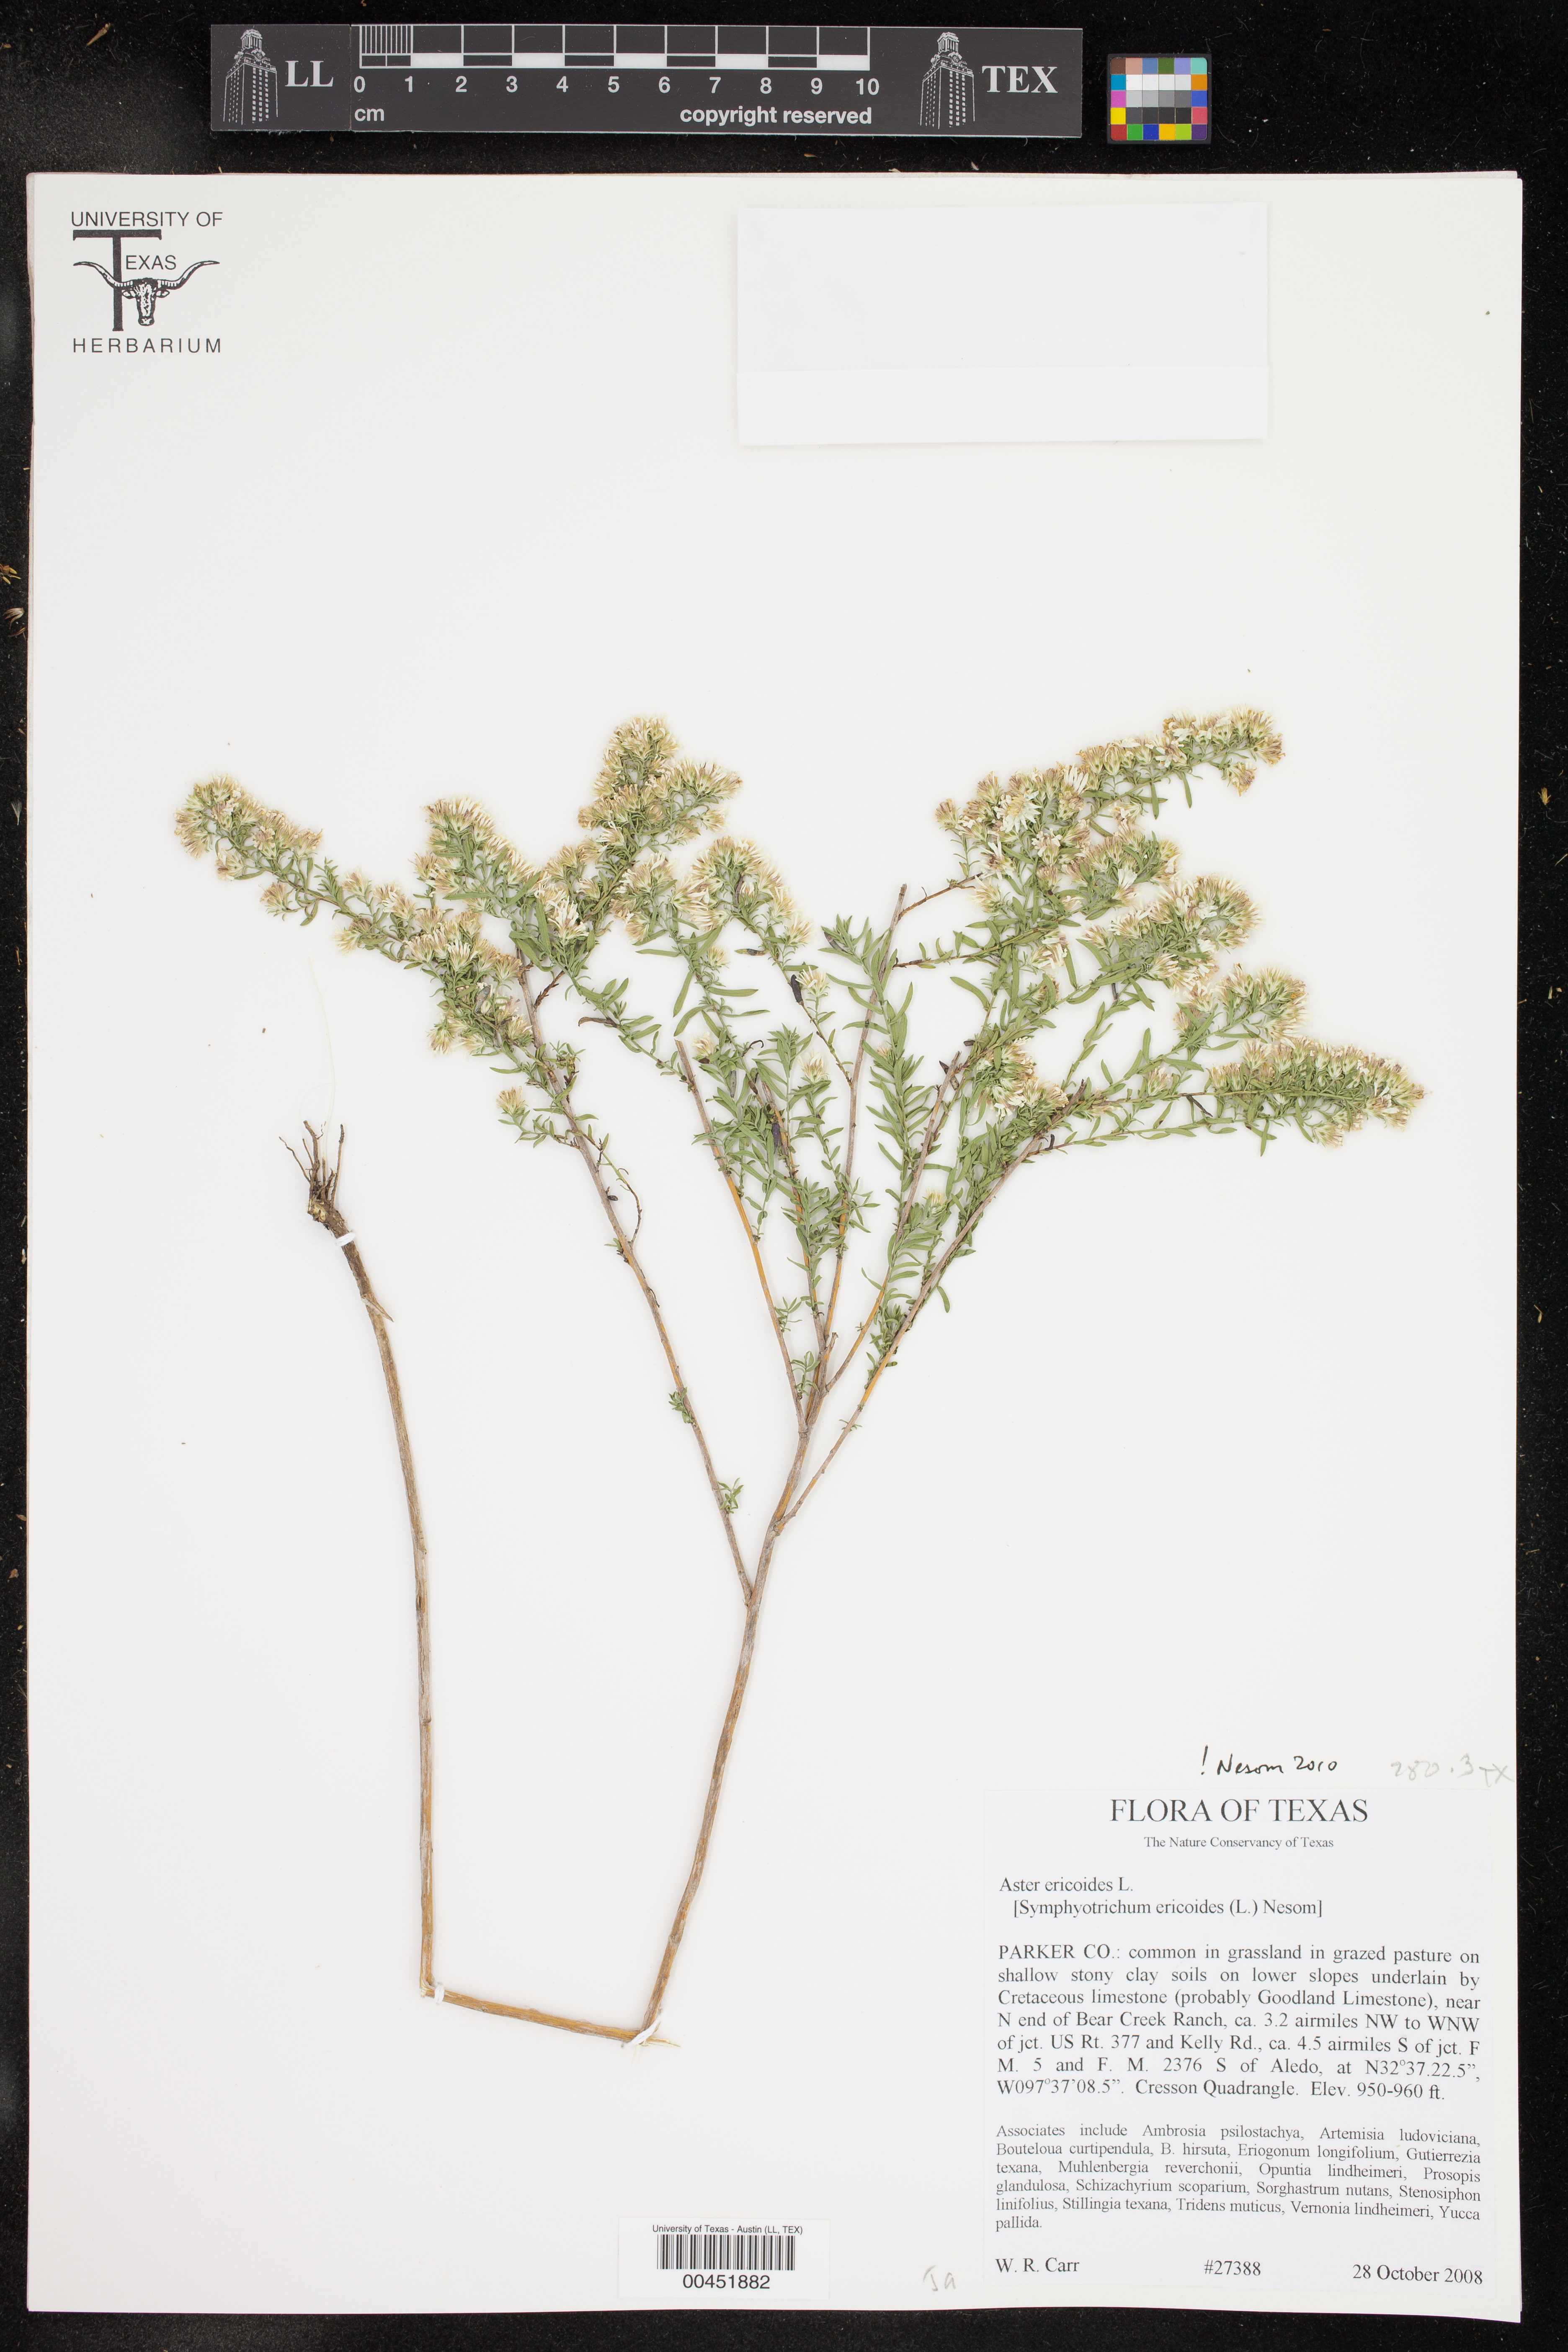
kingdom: Plantae
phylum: Tracheophyta
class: Magnoliopsida
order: Asterales
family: Asteraceae
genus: Symphyotrichum
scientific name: Symphyotrichum ericoides
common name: Heath aster
